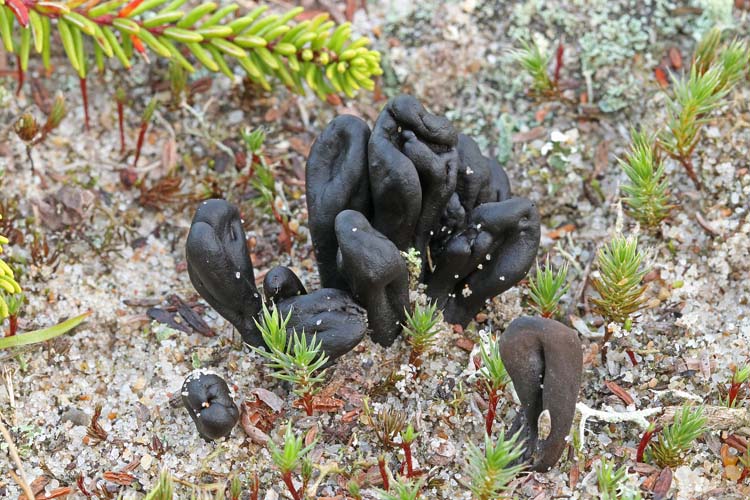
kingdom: Fungi
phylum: Ascomycota
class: Geoglossomycetes
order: Geoglossales
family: Geoglossaceae
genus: Sabuloglossum
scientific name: Sabuloglossum arenarium
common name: klit-jordtunge
